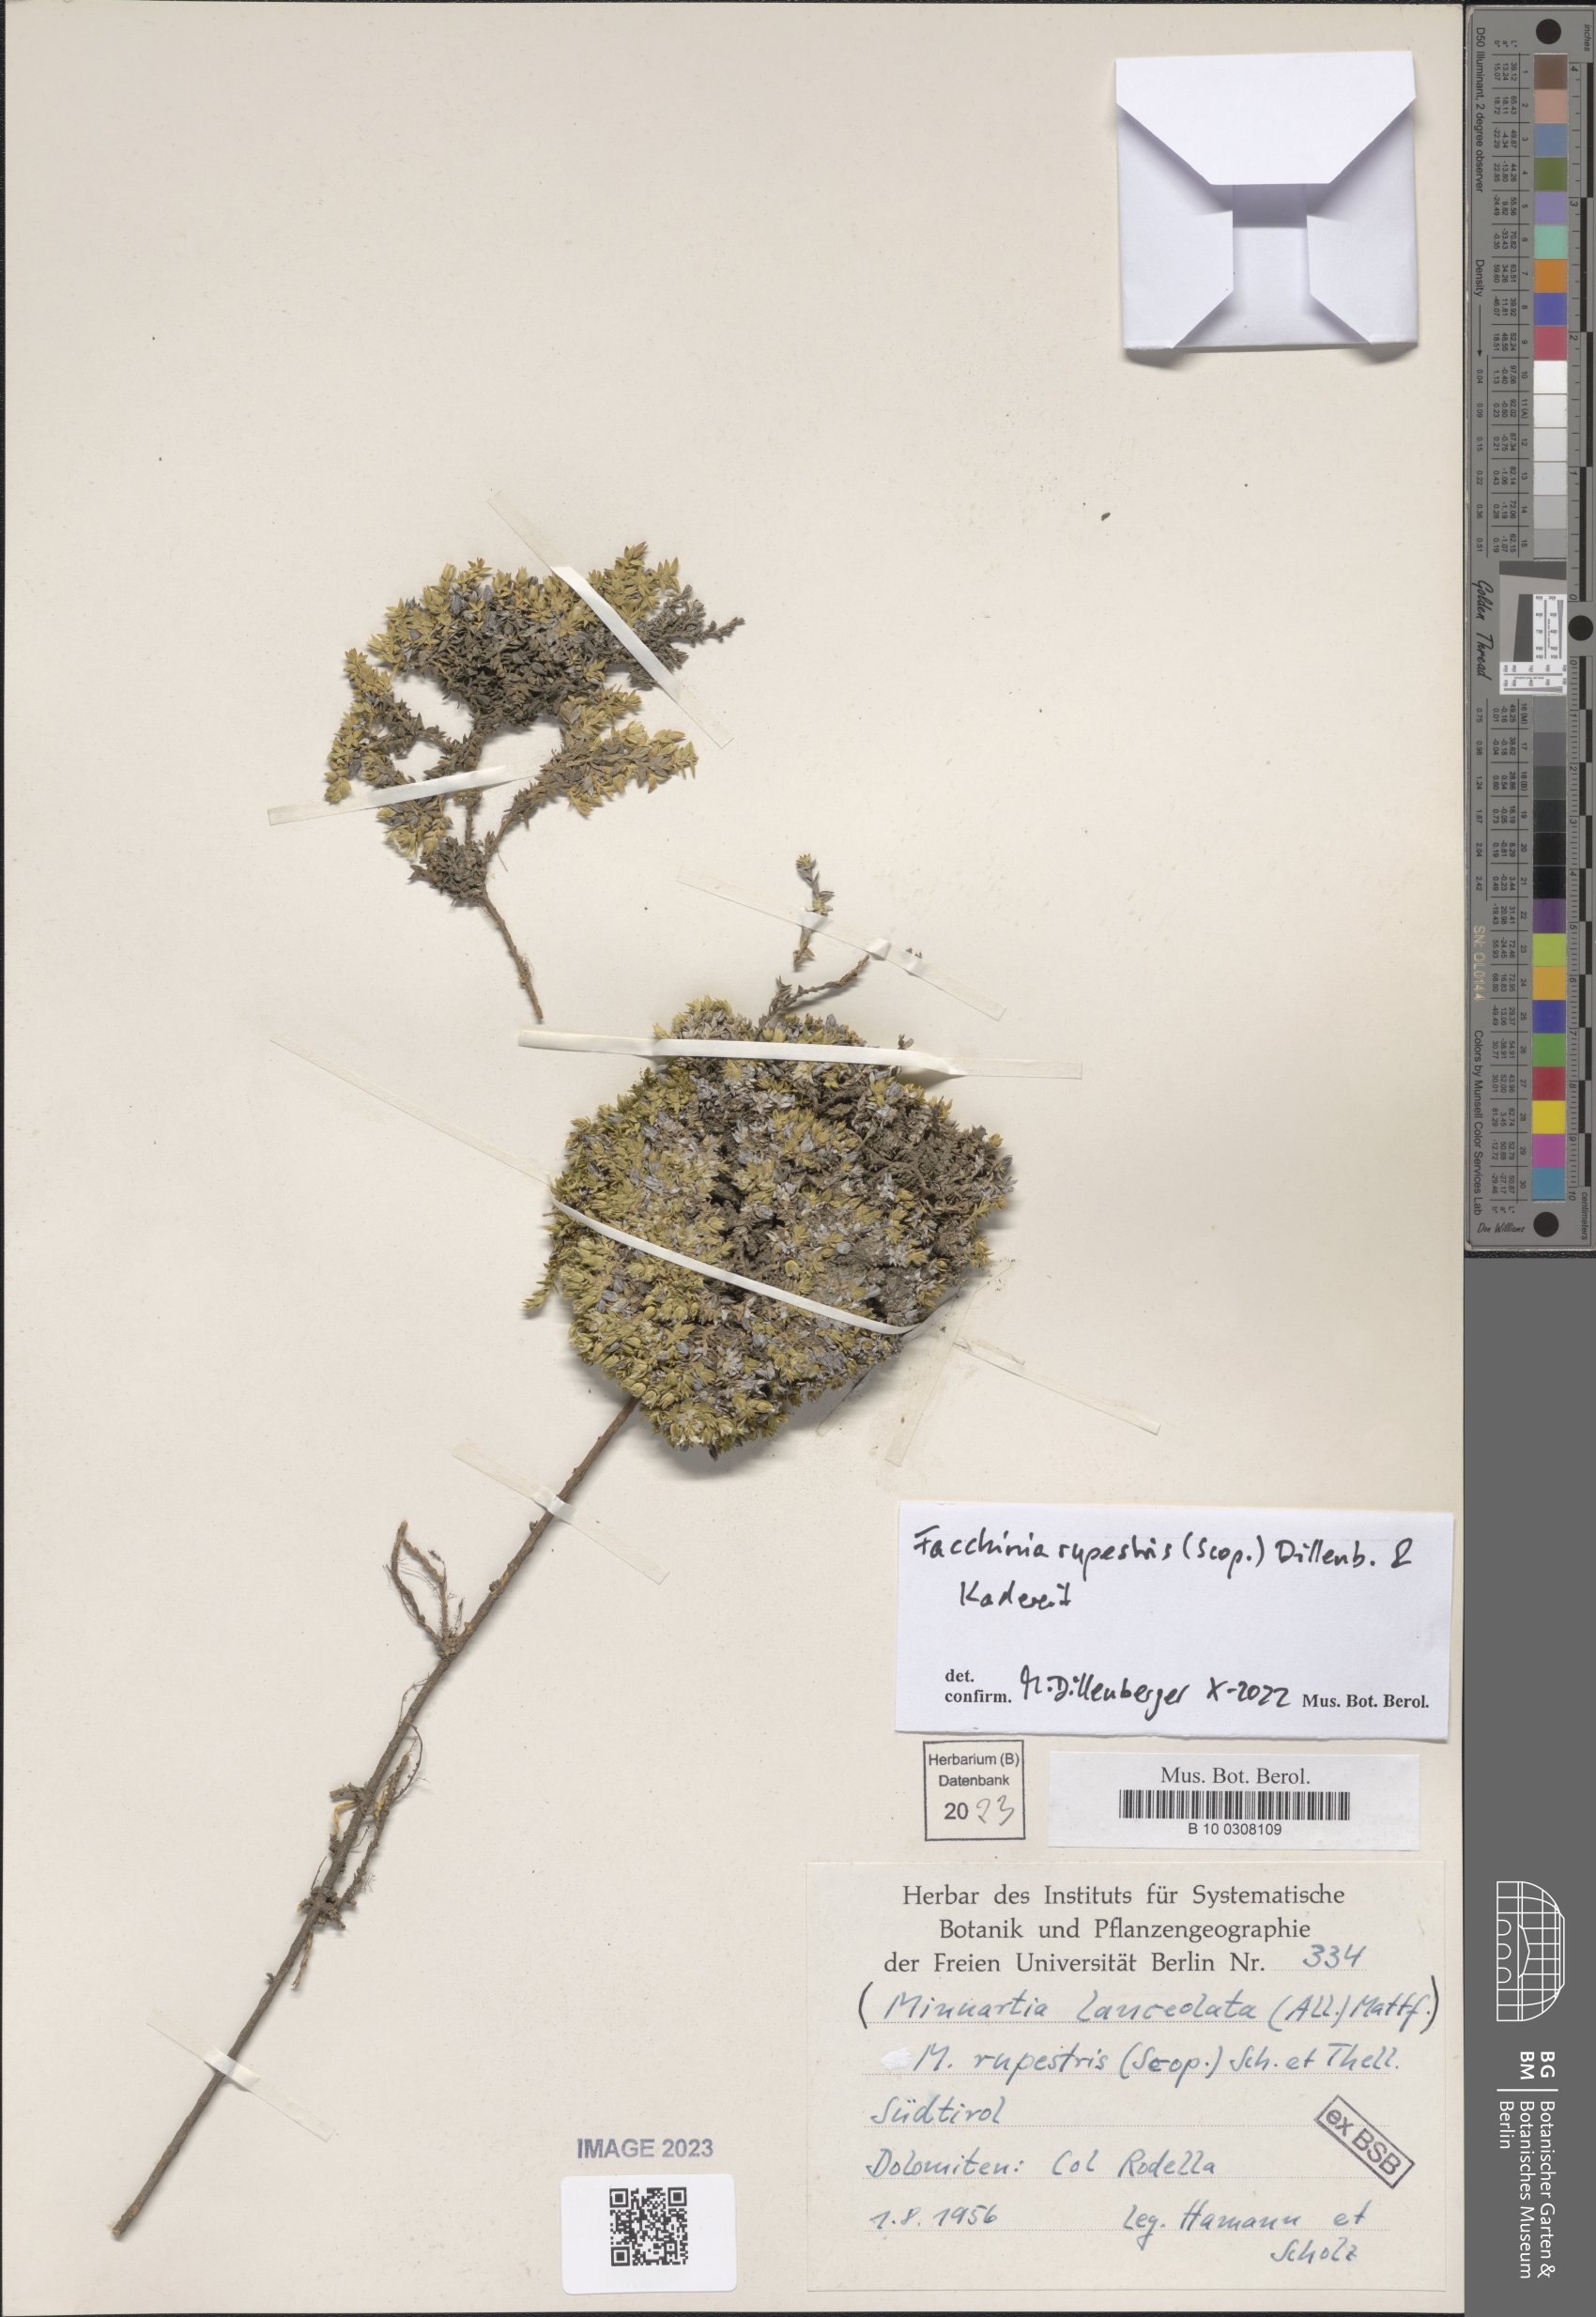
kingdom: Plantae
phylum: Tracheophyta
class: Magnoliopsida
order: Caryophyllales
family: Caryophyllaceae
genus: Facchinia
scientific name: Facchinia rupestris
